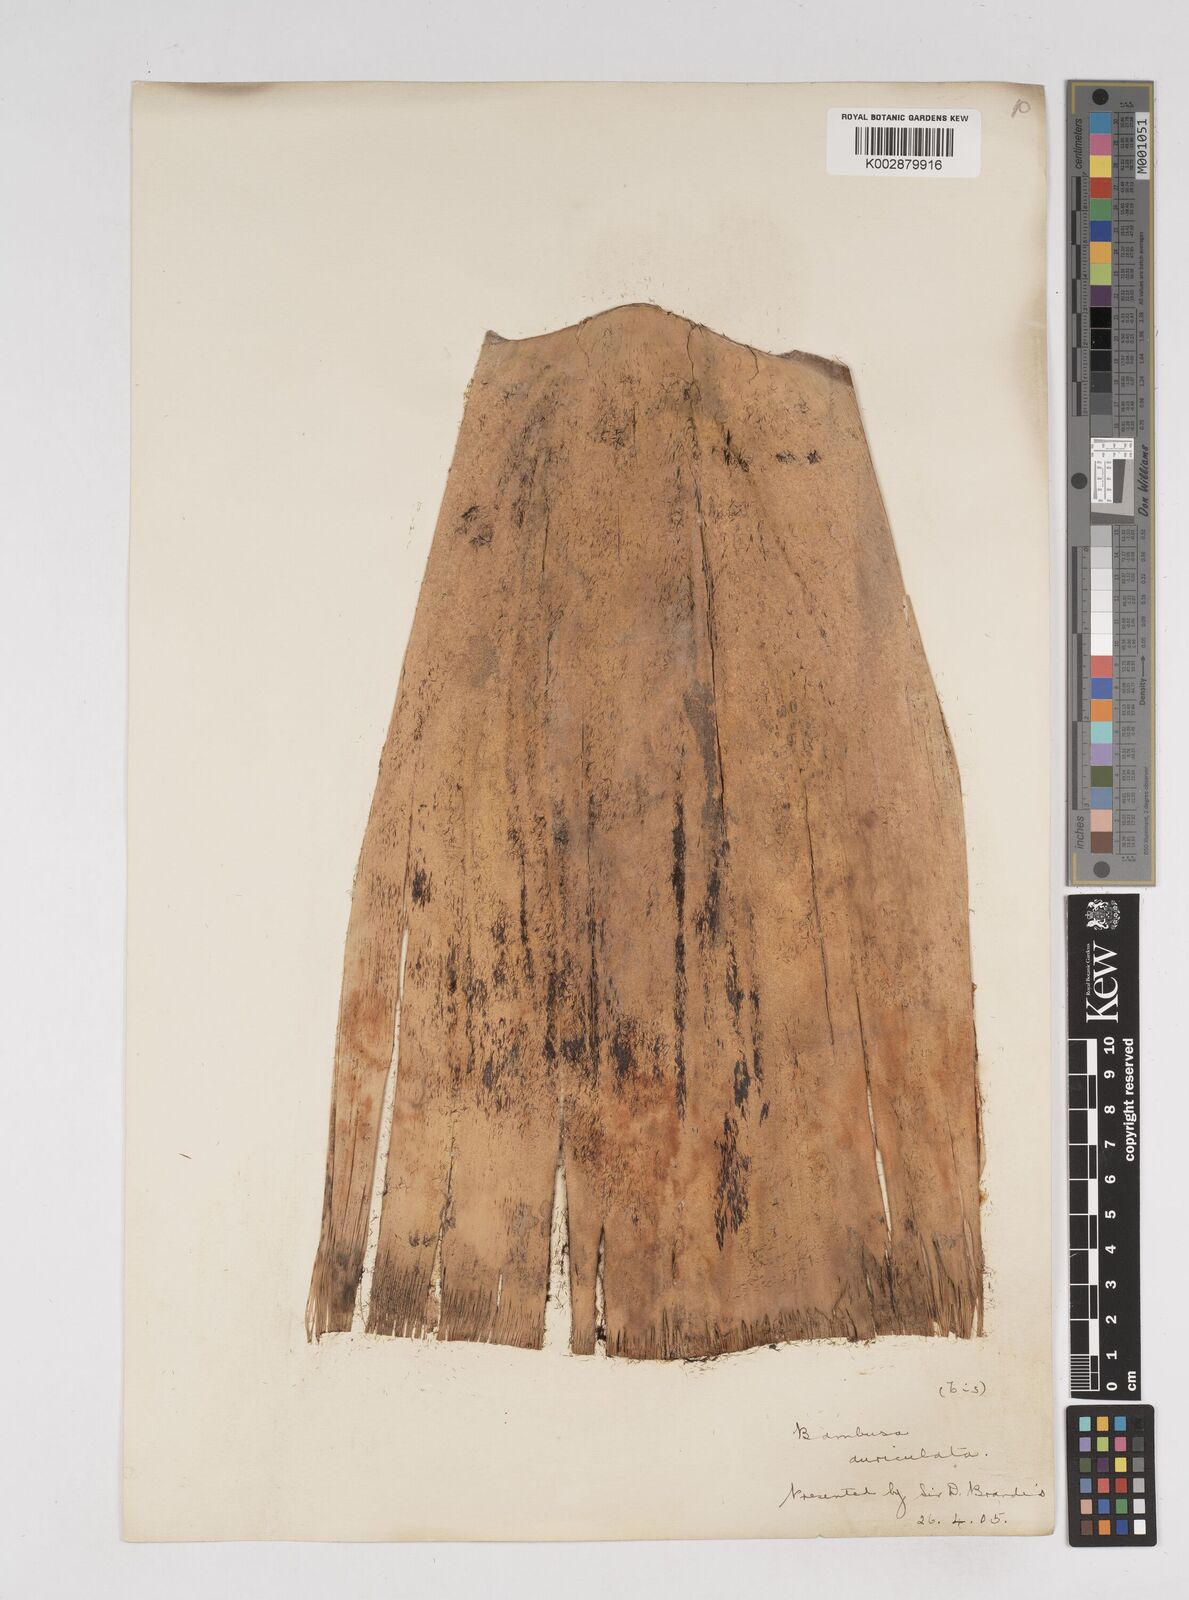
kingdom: Plantae
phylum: Tracheophyta
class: Liliopsida
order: Poales
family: Poaceae
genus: Gigantochloa
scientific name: Gigantochloa
